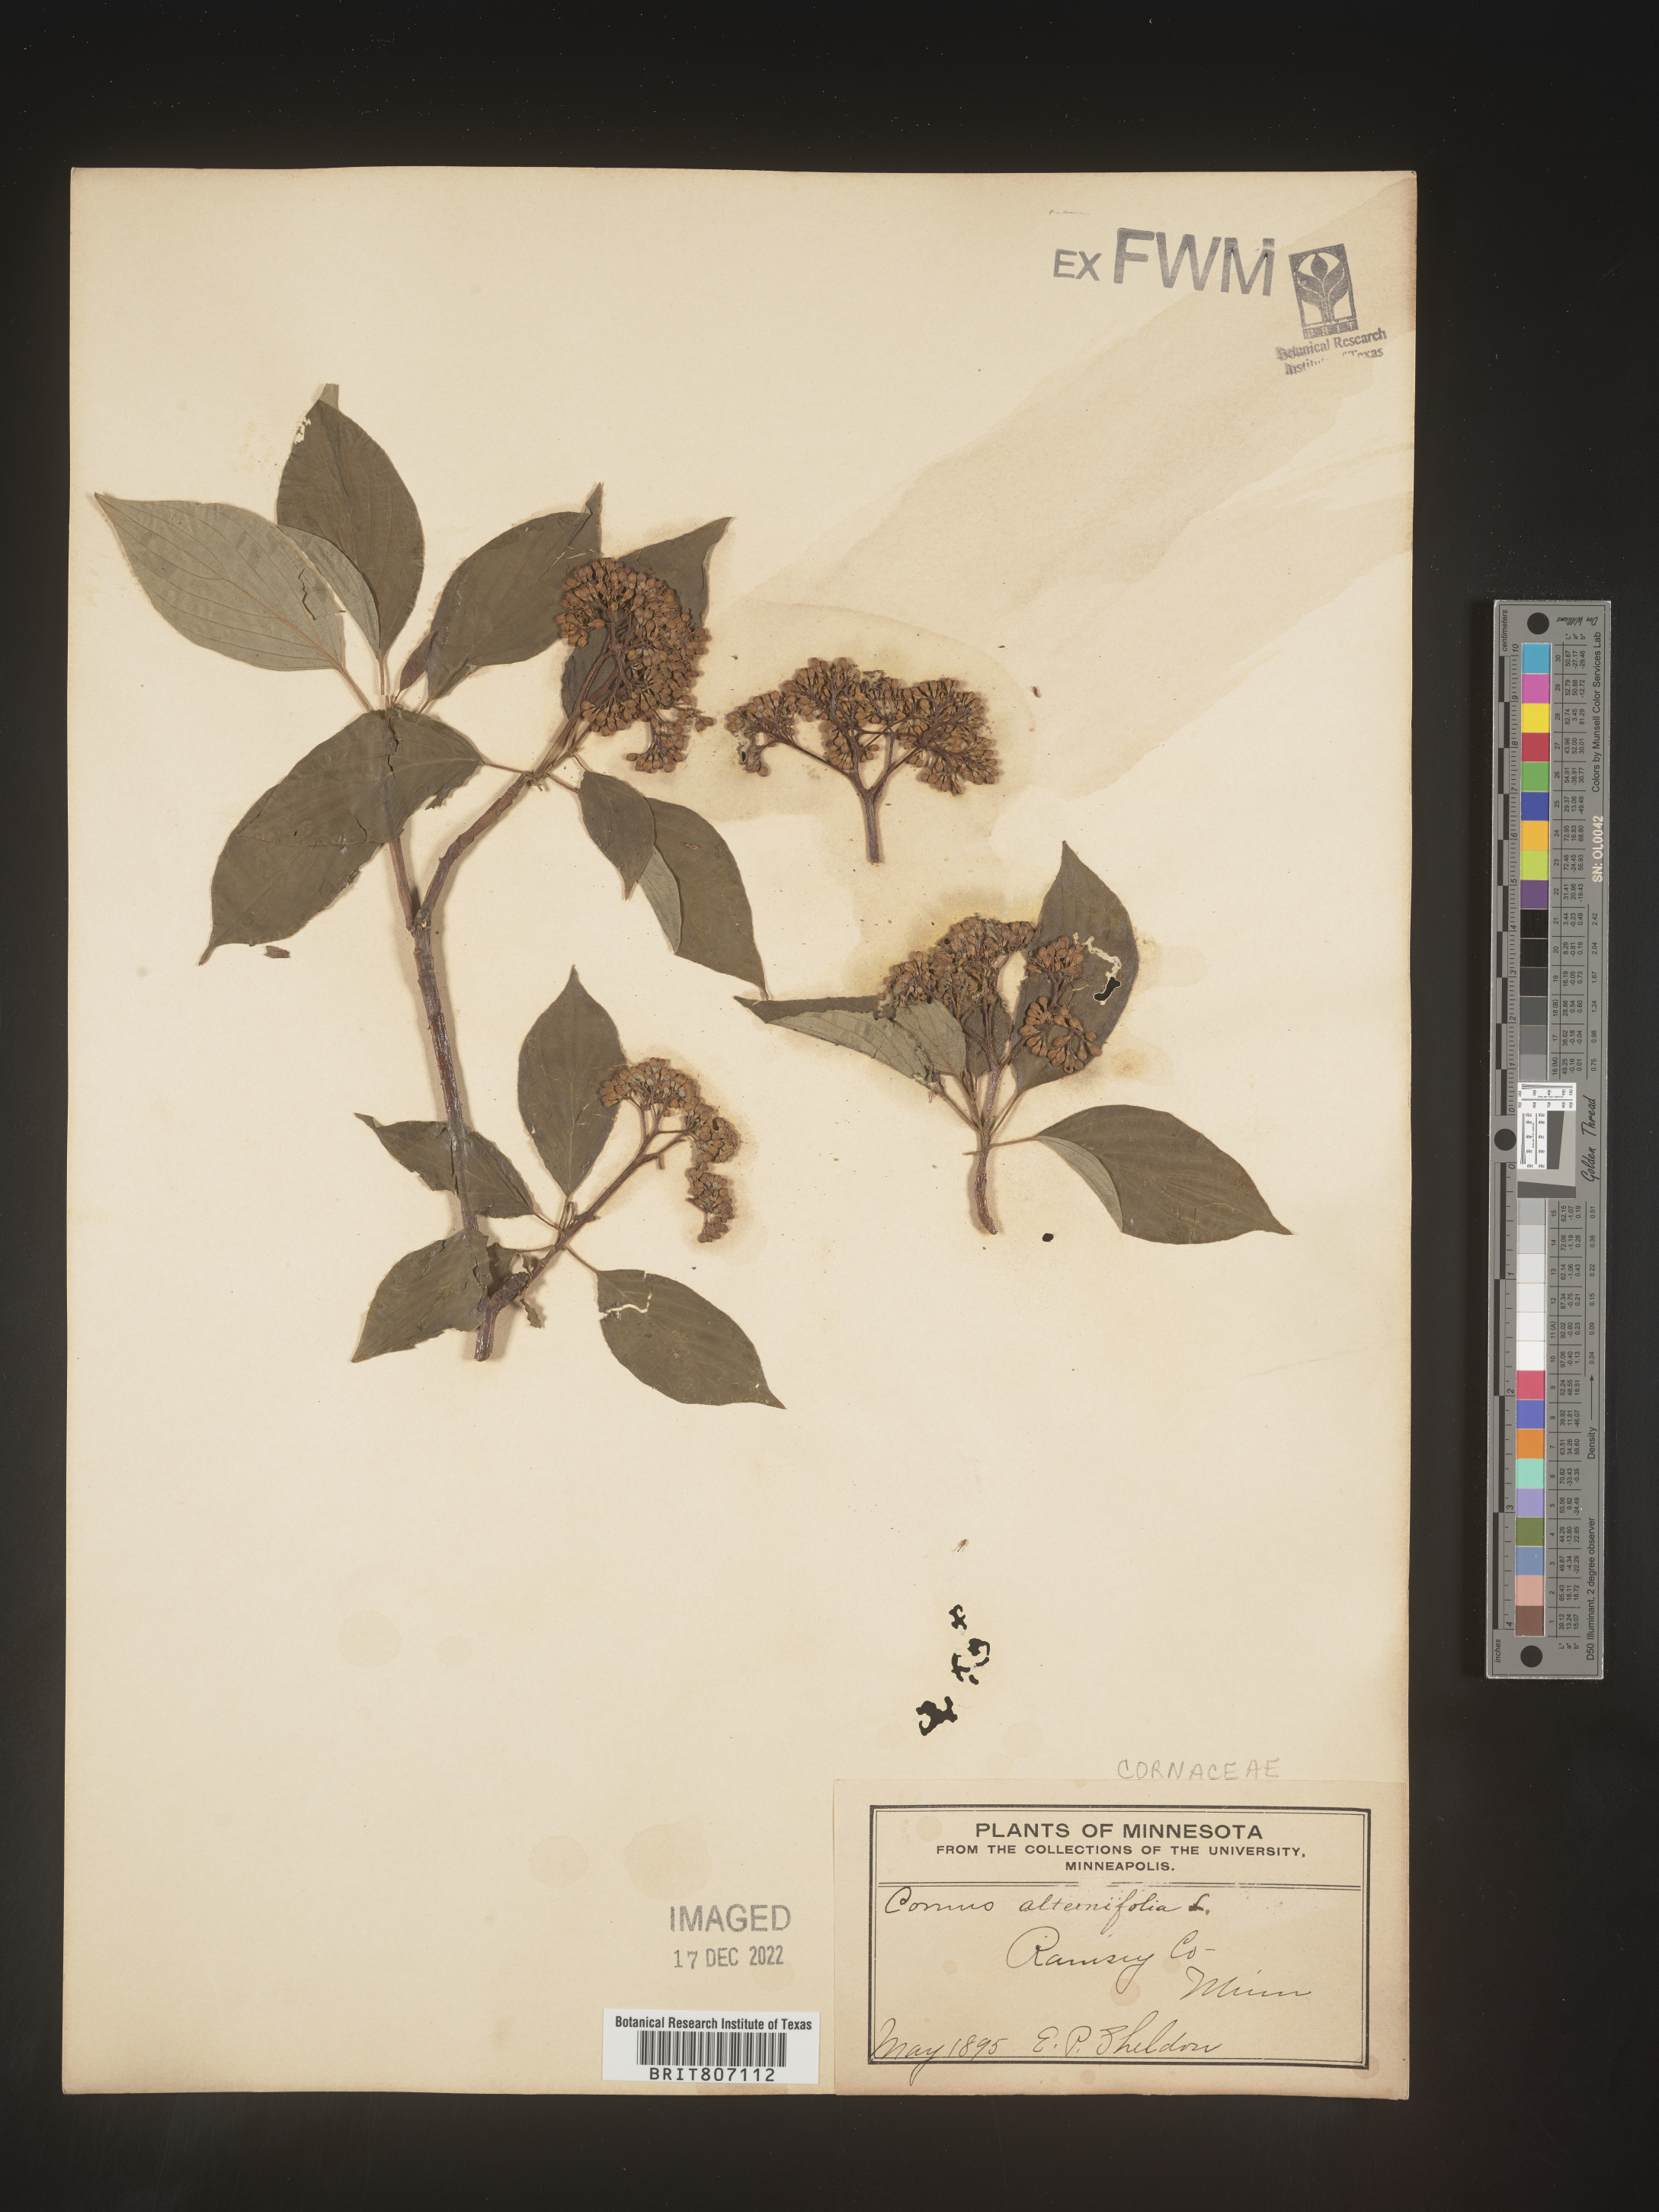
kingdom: Plantae
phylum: Tracheophyta
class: Magnoliopsida
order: Cornales
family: Cornaceae
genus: Cornus
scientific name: Cornus alternifolia
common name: Pagoda dogwood
